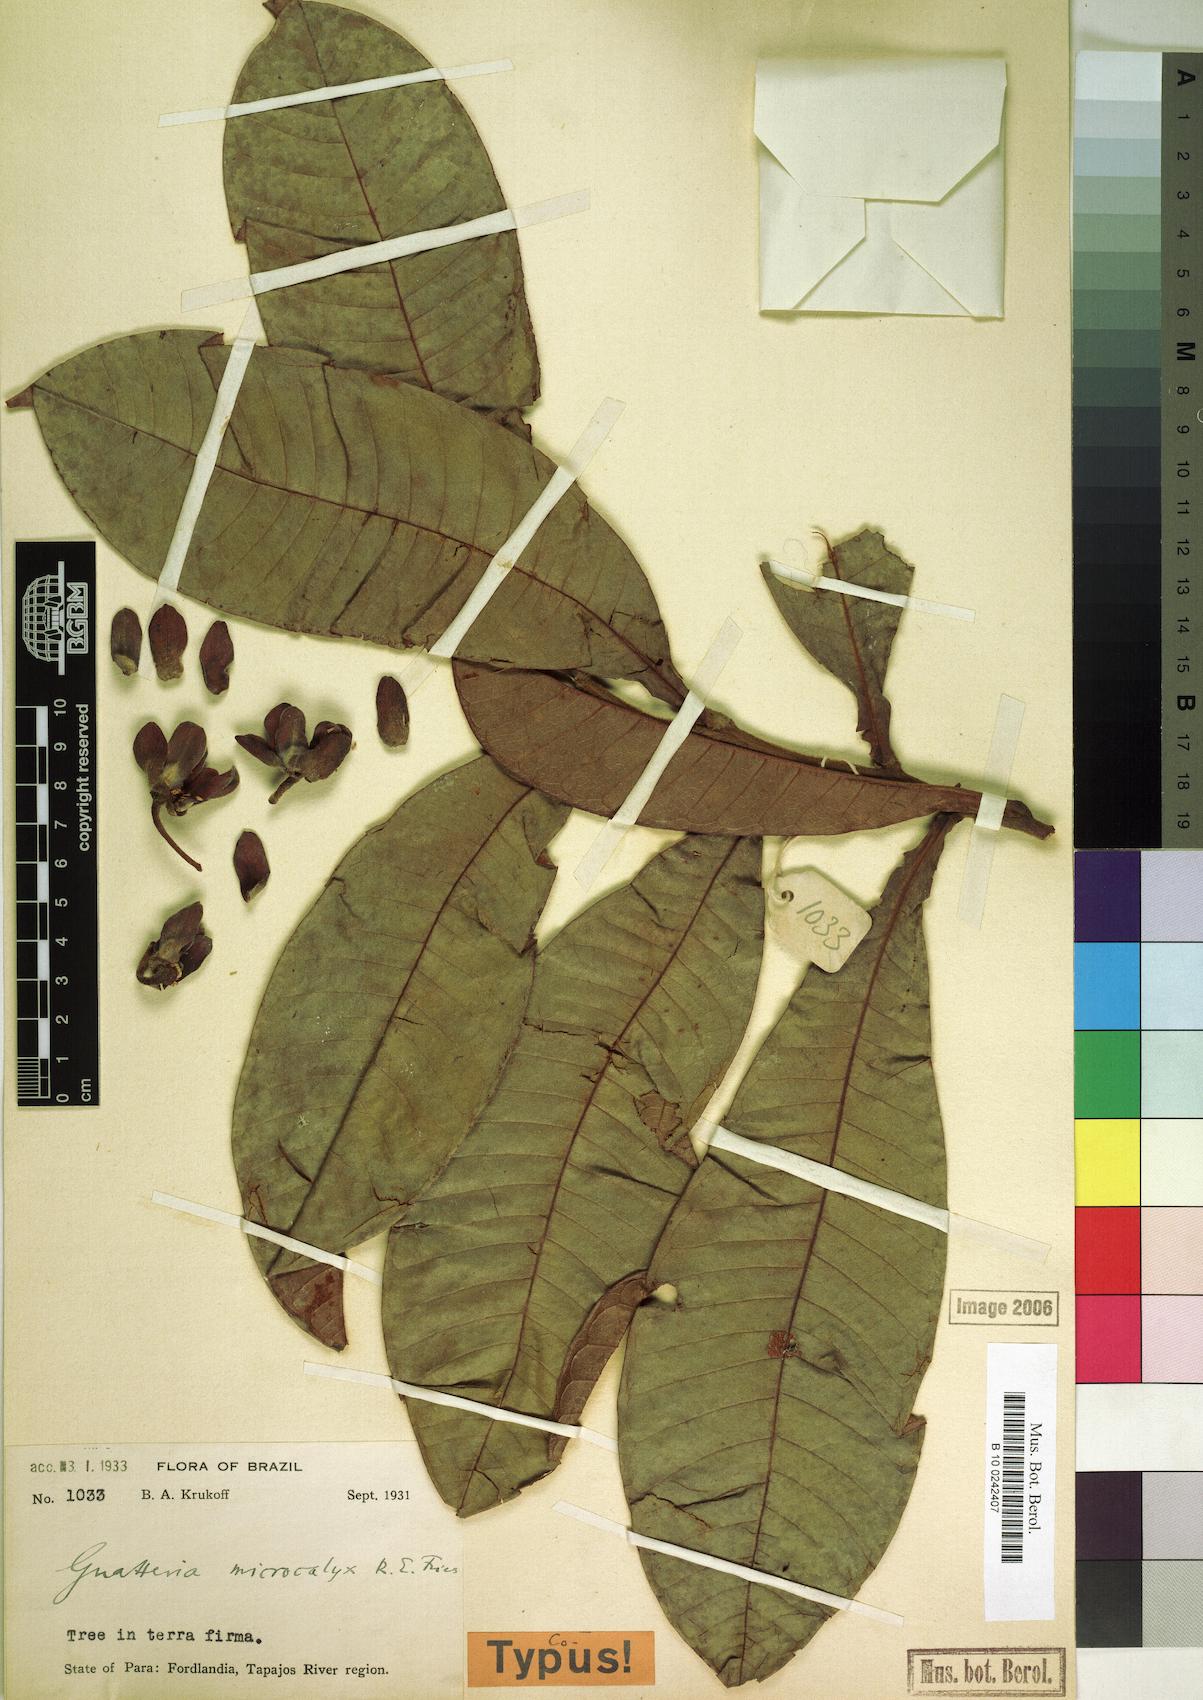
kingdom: Plantae
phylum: Tracheophyta
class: Magnoliopsida
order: Magnoliales
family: Annonaceae
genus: Guatteria
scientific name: Guatteria longicuspis
